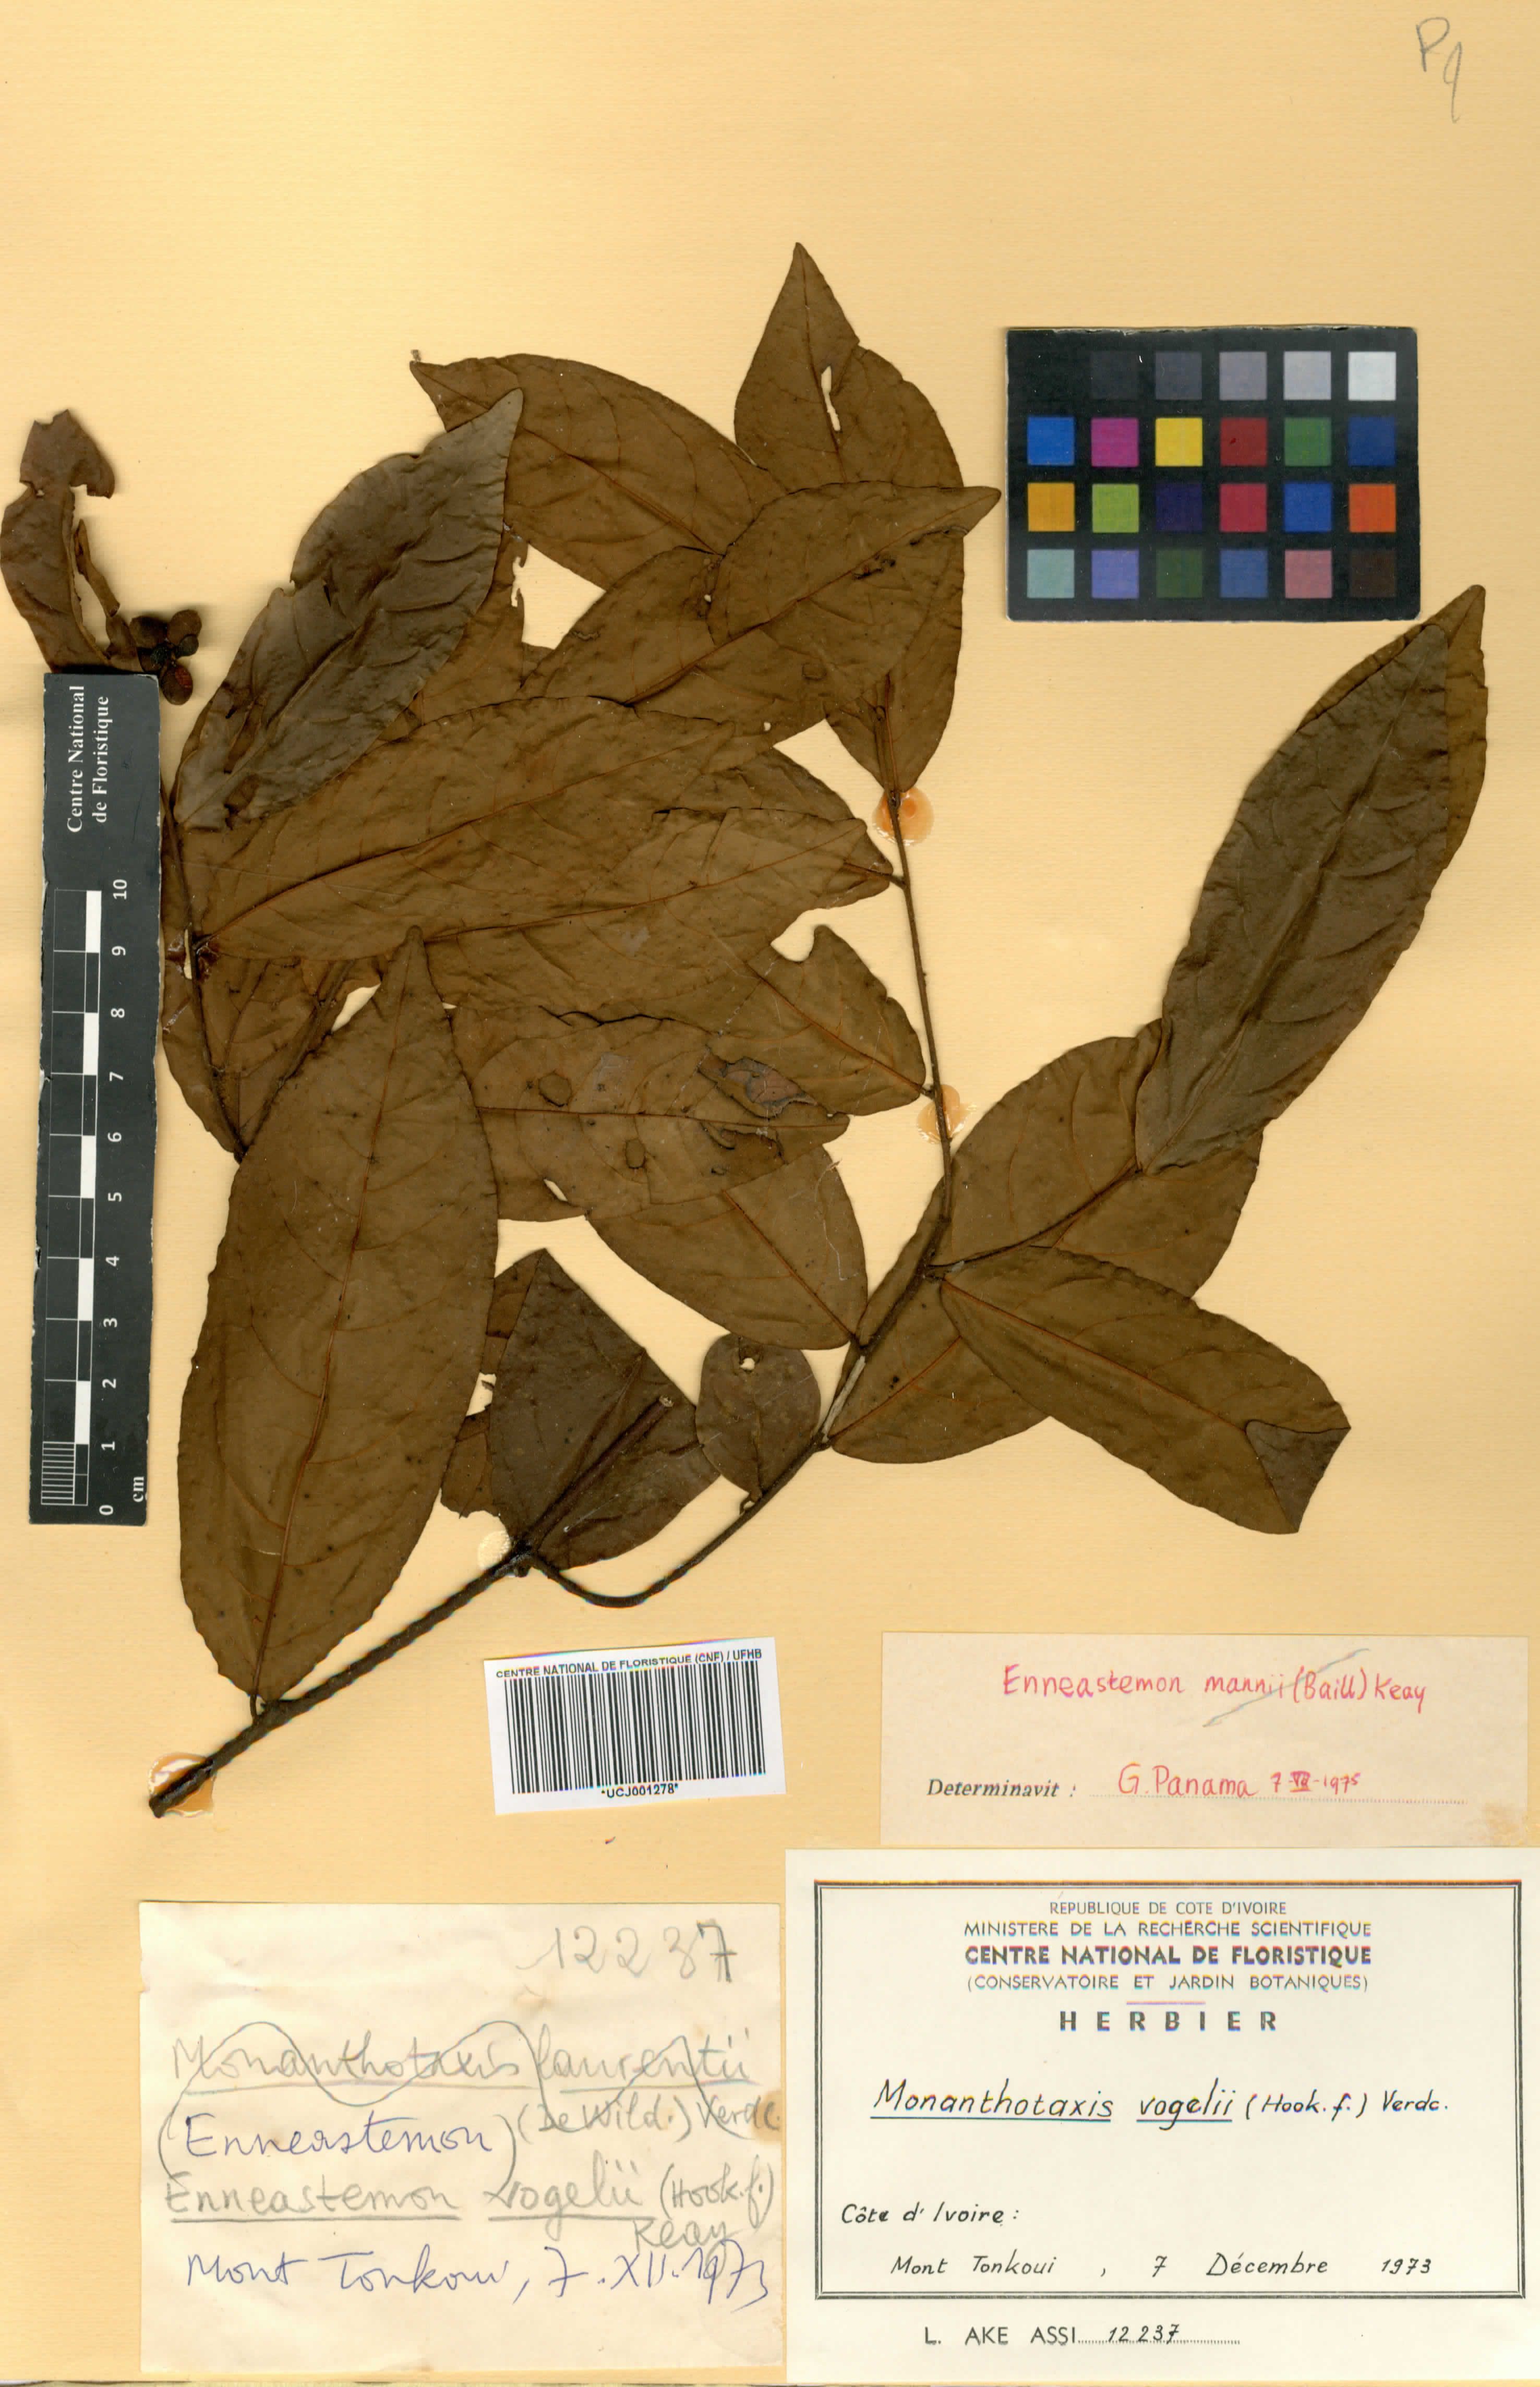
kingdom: Plantae
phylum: Tracheophyta
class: Magnoliopsida
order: Magnoliales
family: Annonaceae
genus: Monanthotaxis
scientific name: Monanthotaxis vogelii
